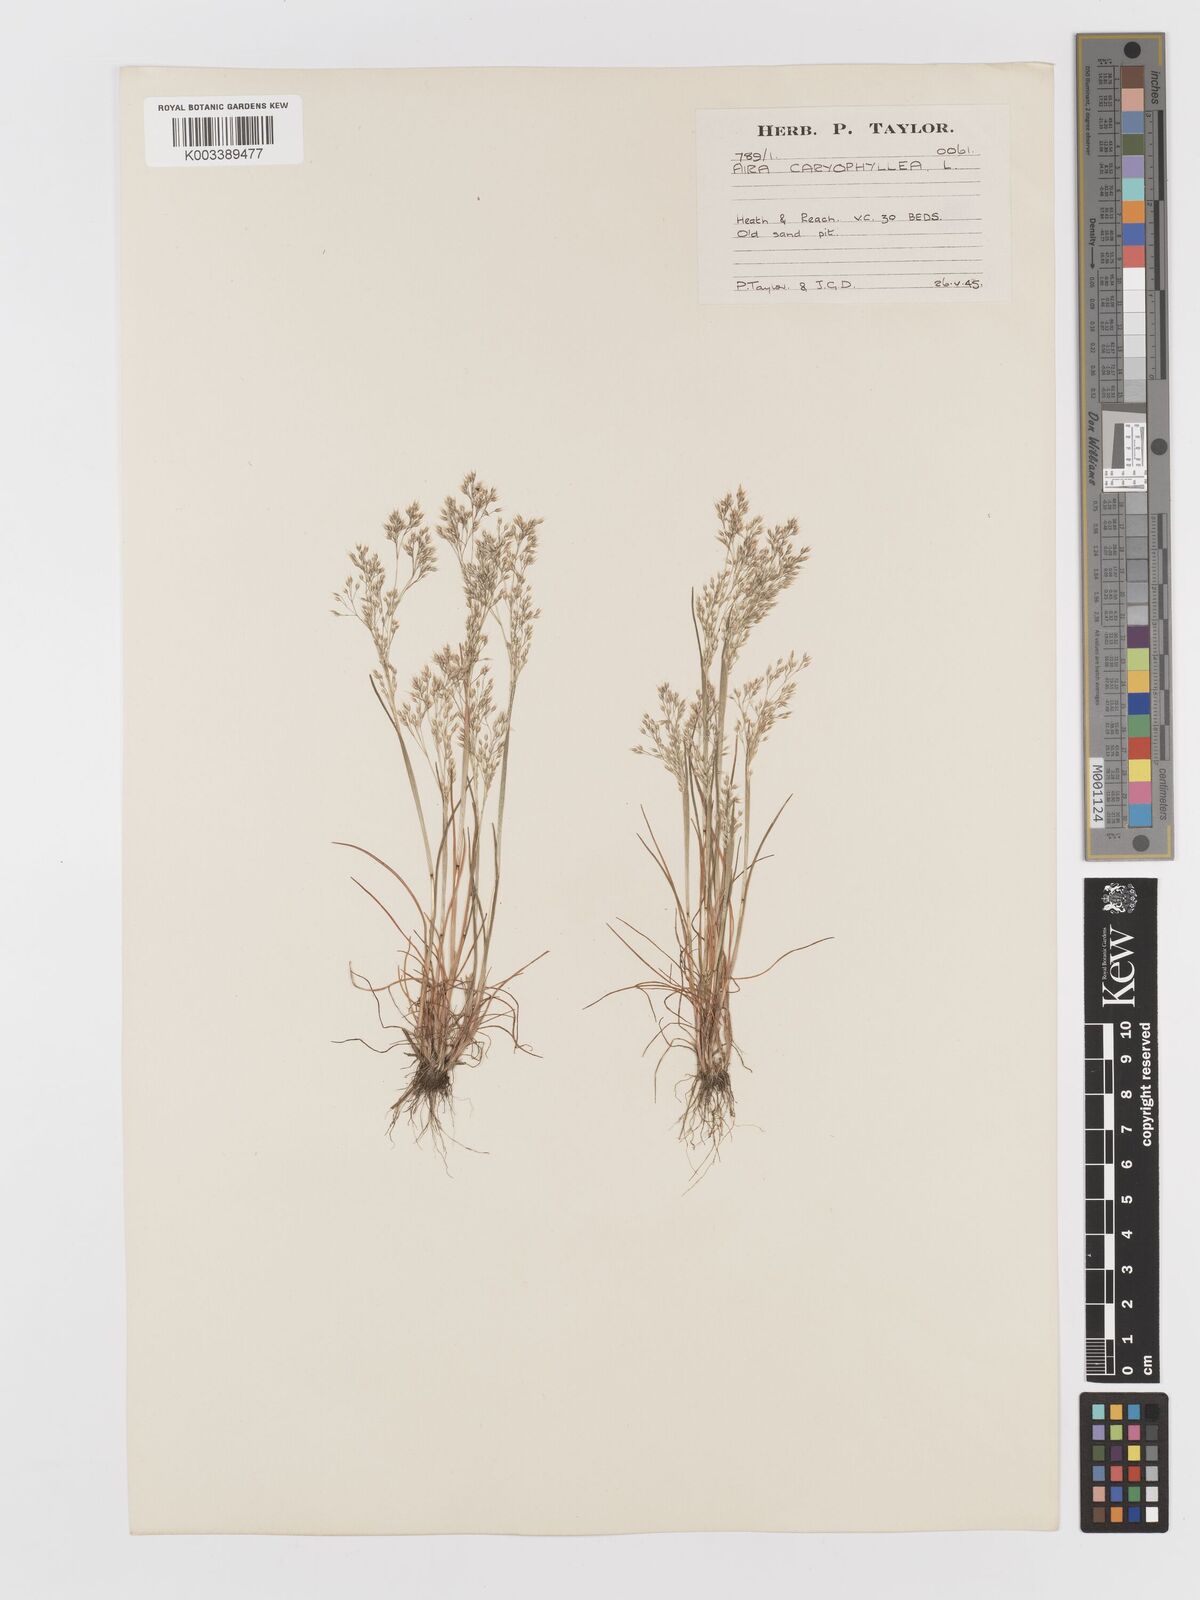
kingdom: Plantae
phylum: Tracheophyta
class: Liliopsida
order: Poales
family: Poaceae
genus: Aira
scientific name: Aira caryophyllea
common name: Silver hairgrass
